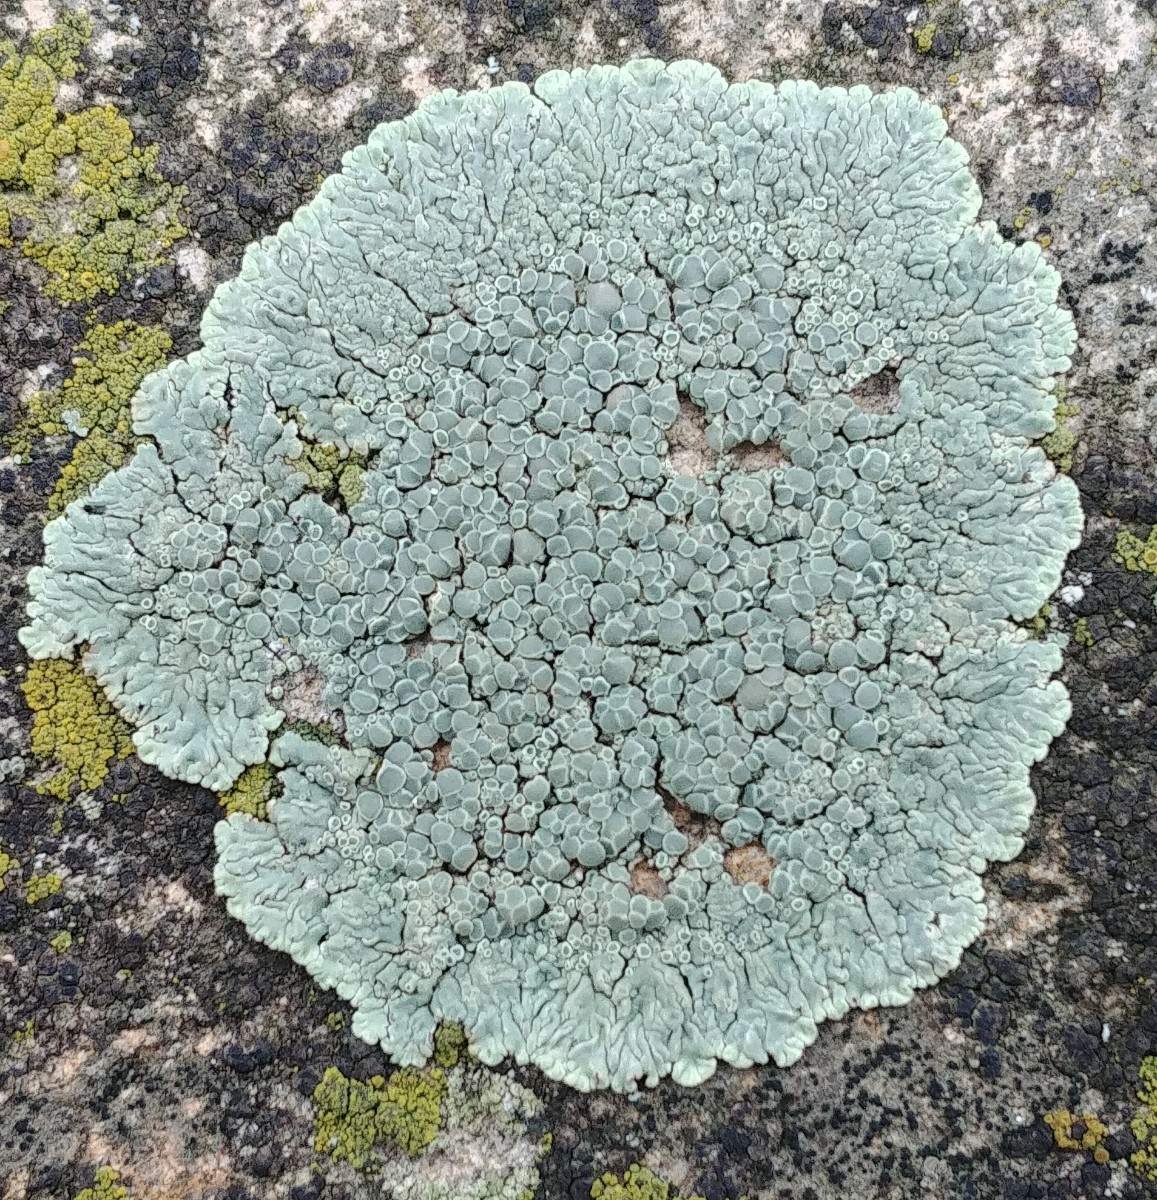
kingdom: Fungi
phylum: Ascomycota
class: Lecanoromycetes
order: Lecanorales
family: Lecanoraceae
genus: Protoparmeliopsis
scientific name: Protoparmeliopsis muralis
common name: randfliget kantskivelav
